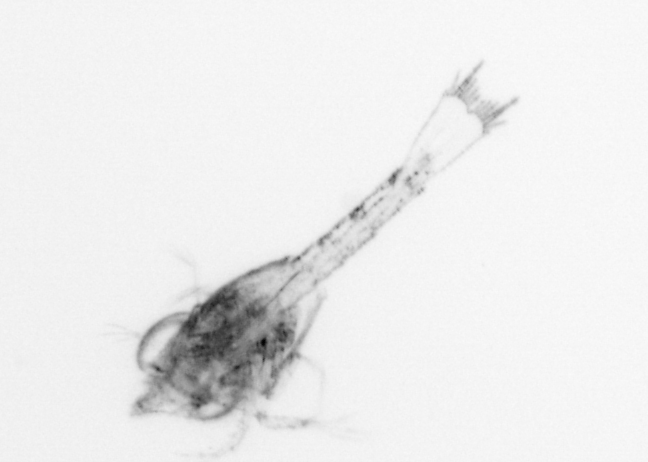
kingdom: Animalia
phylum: Arthropoda
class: Malacostraca
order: Decapoda
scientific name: Decapoda
